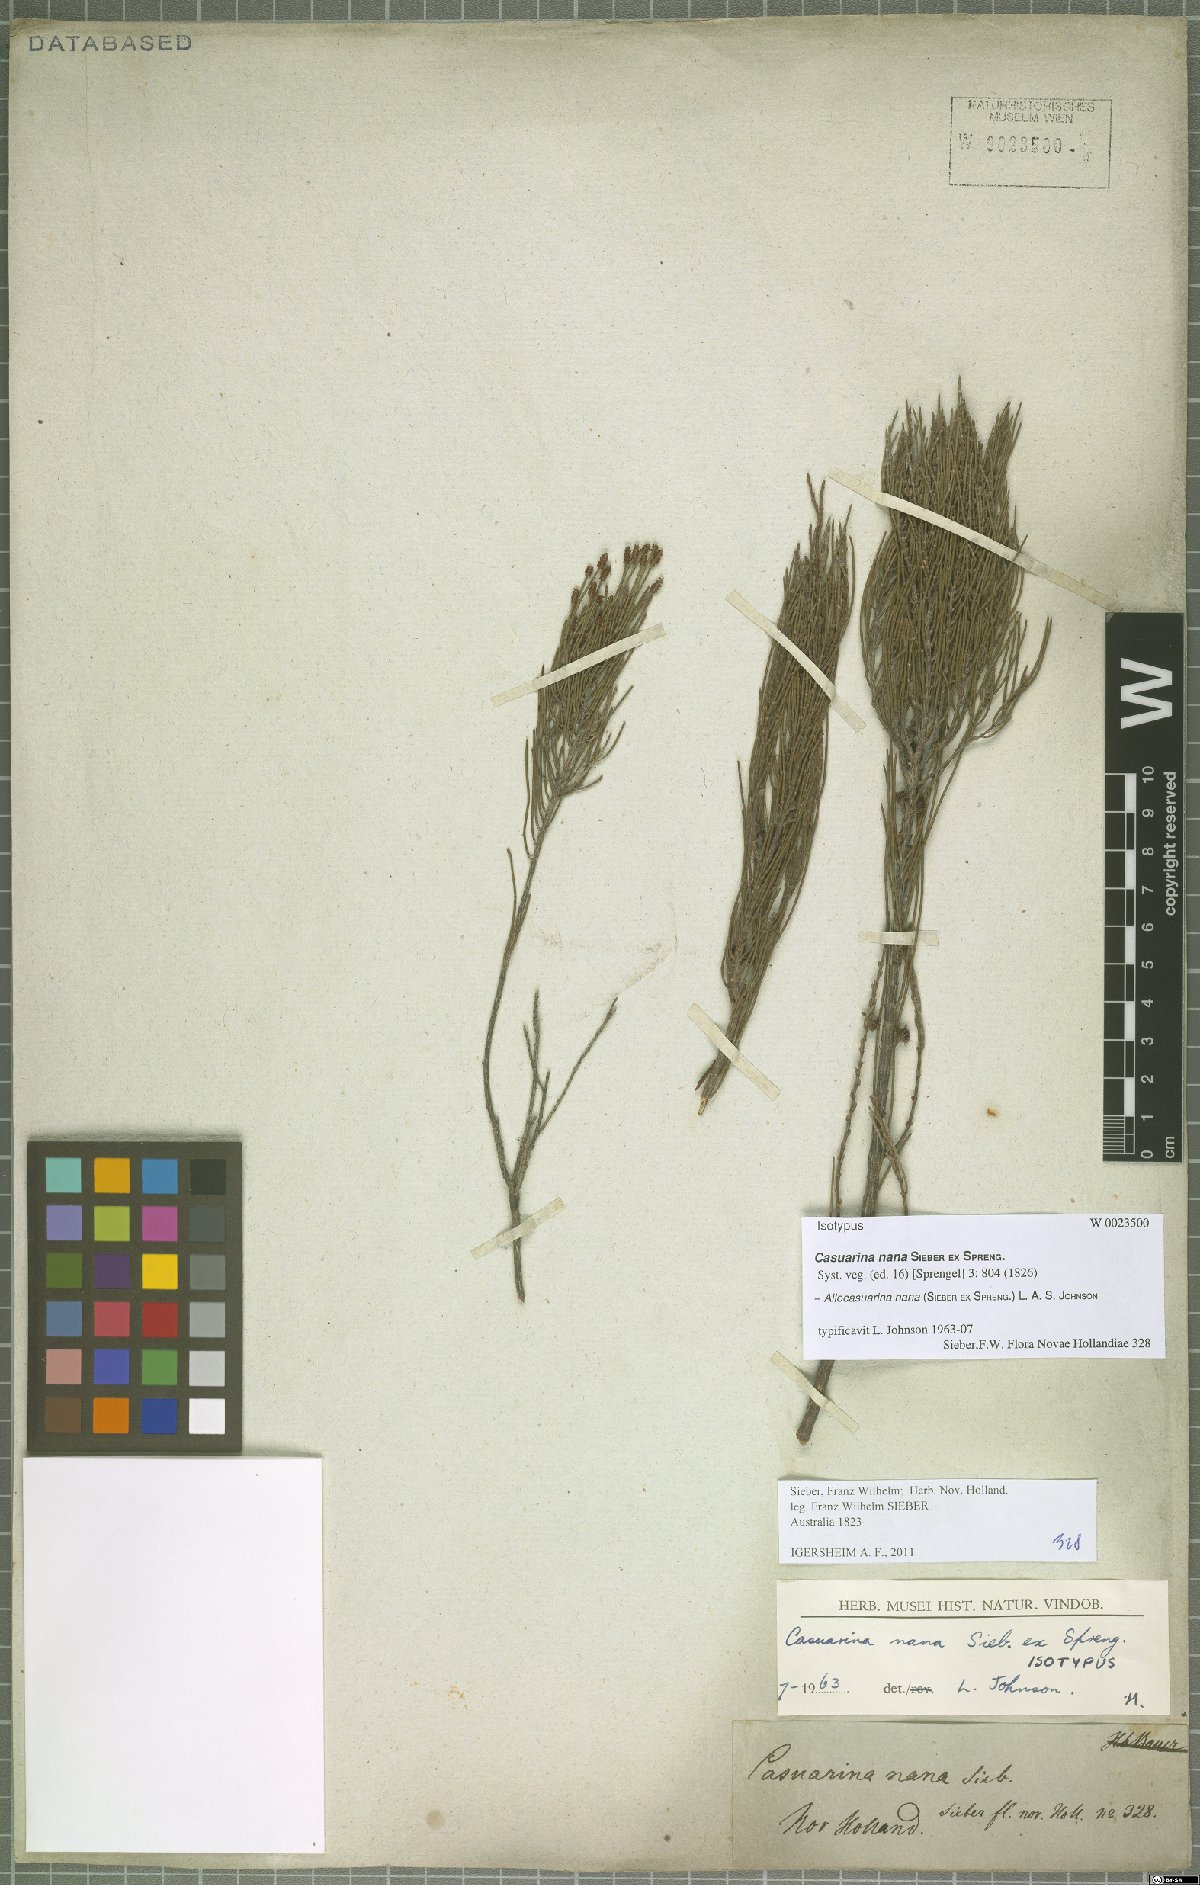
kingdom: Plantae
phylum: Tracheophyta
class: Magnoliopsida
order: Fagales
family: Casuarinaceae
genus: Allocasuarina
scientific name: Allocasuarina nana
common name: Stunted she-oak
